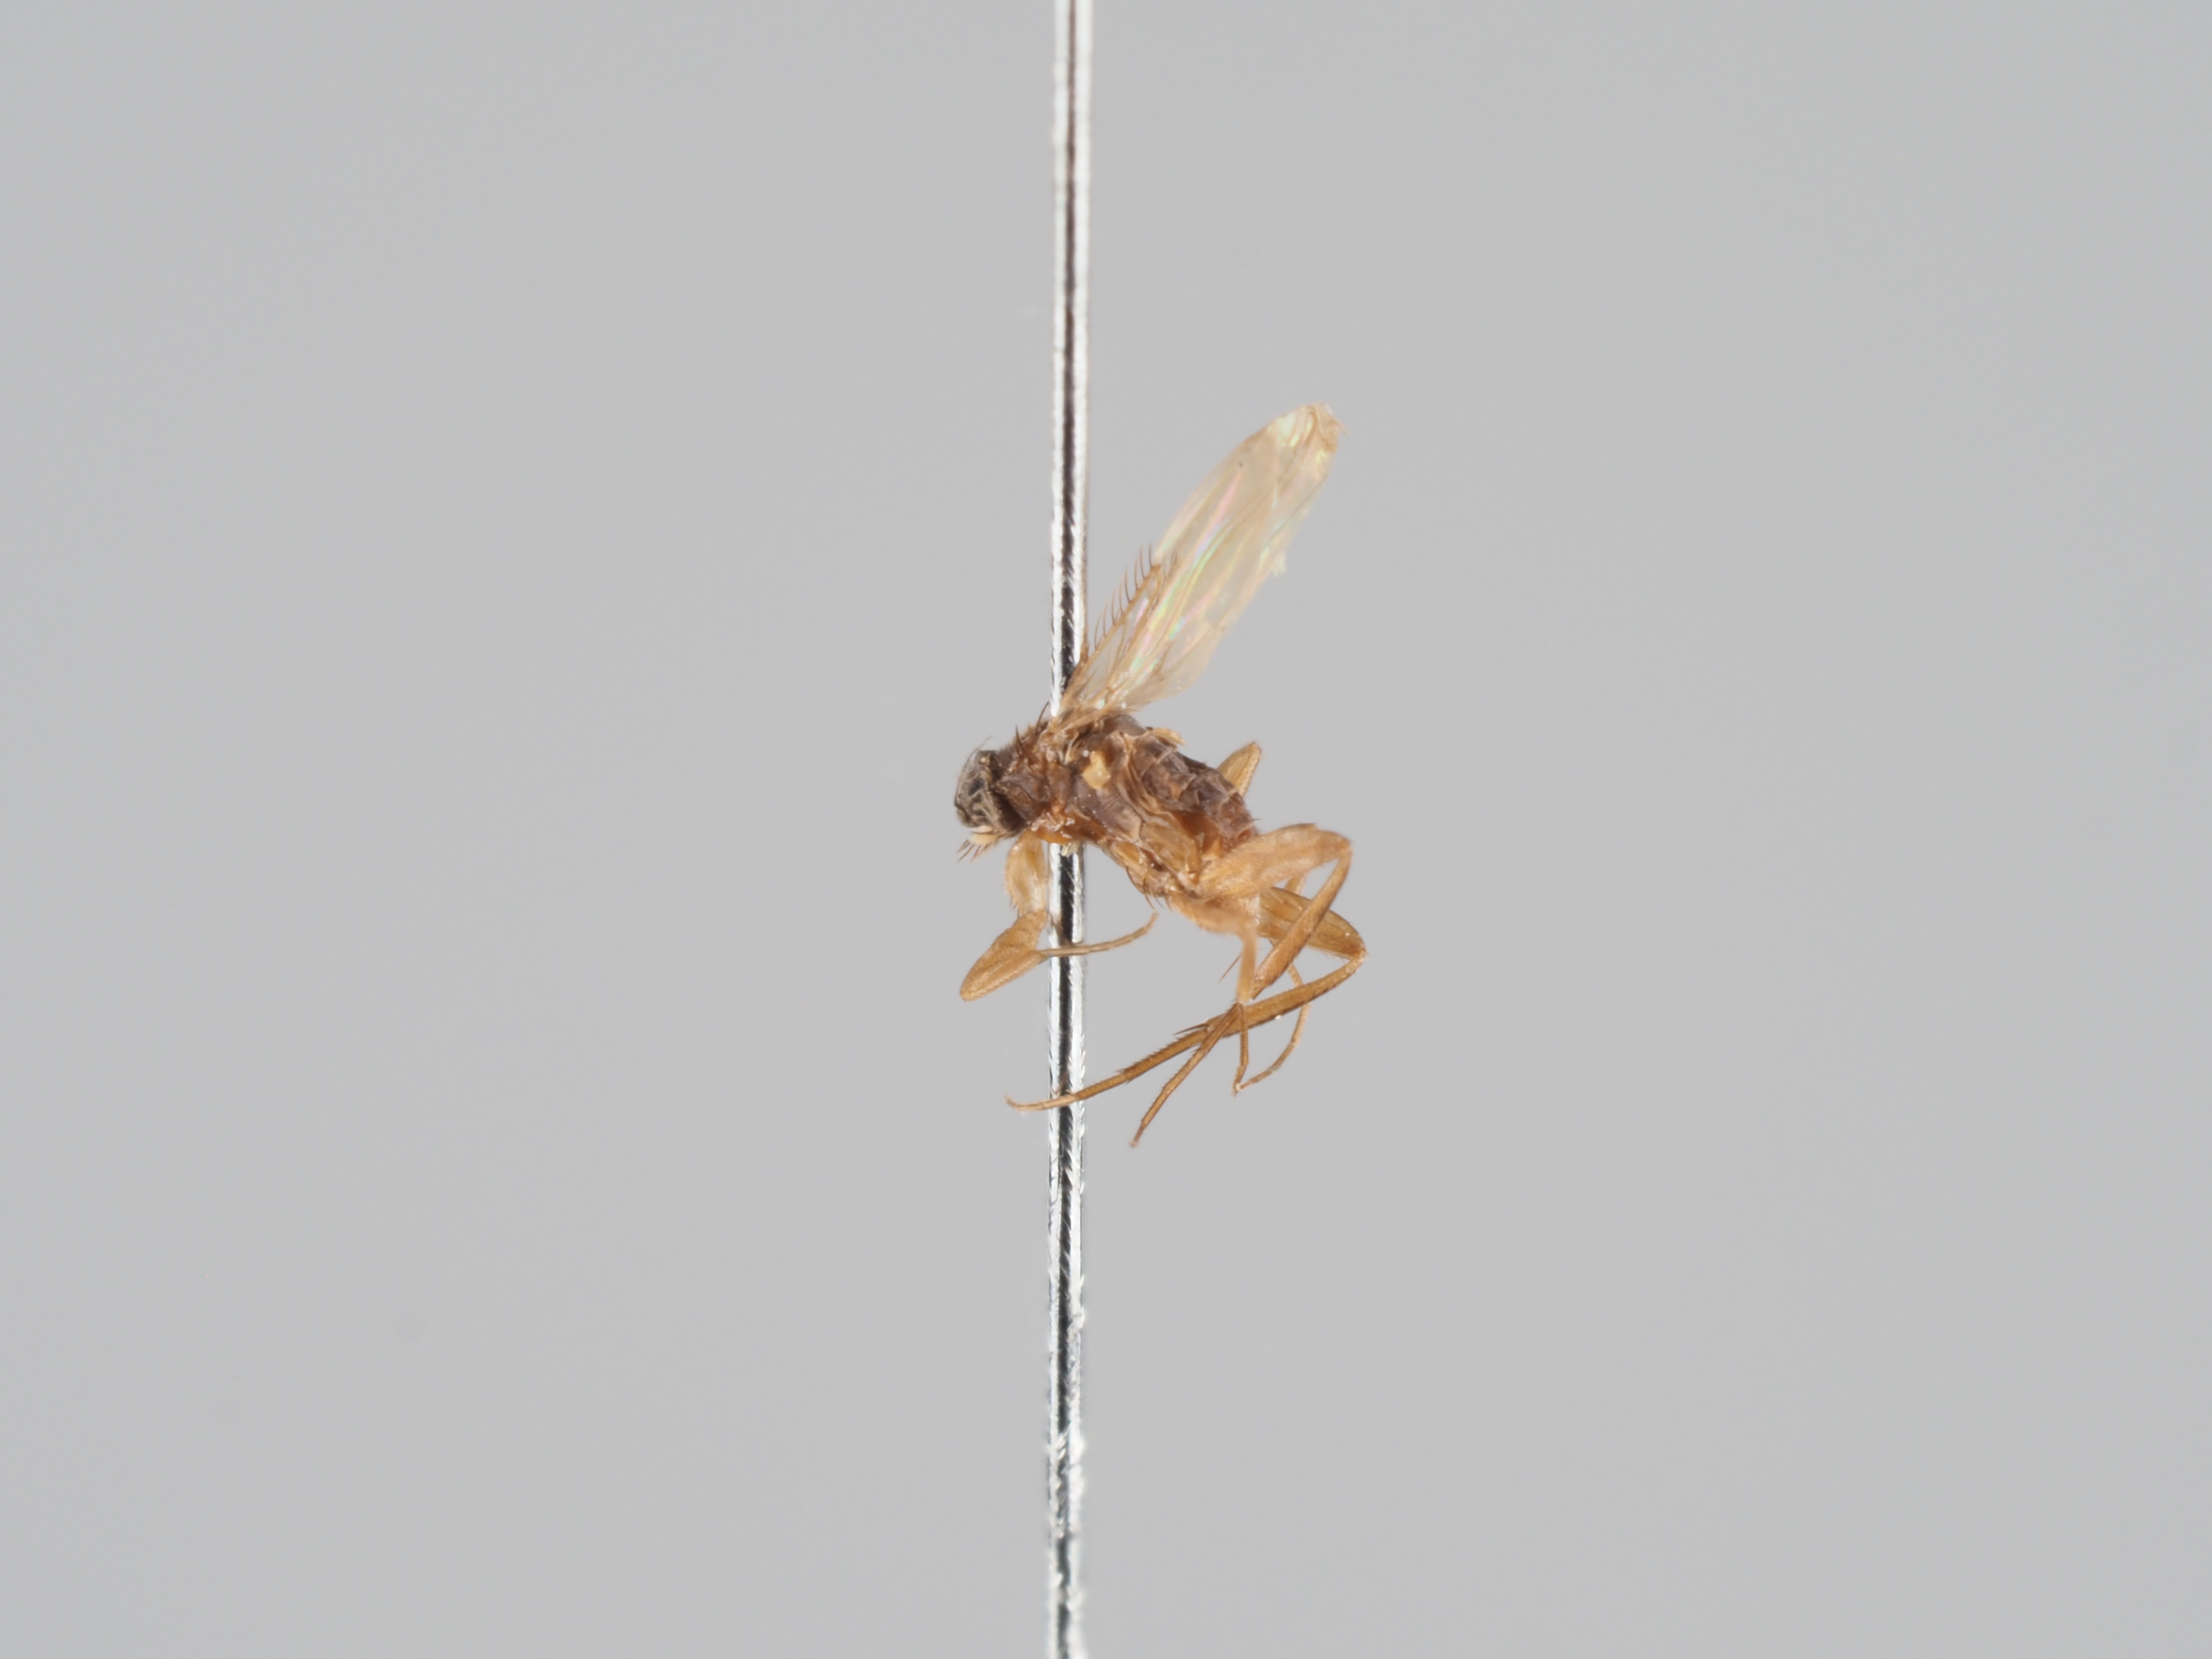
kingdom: Animalia
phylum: Arthropoda
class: Insecta
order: Diptera
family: Phoridae
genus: Megaselia
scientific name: Megaselia albicaudata
